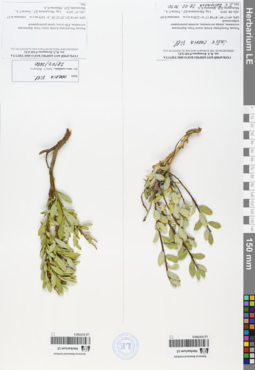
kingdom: Plantae
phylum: Tracheophyta
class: Magnoliopsida
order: Malpighiales
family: Salicaceae
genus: Salix
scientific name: Salix caesia
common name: Blue willow
